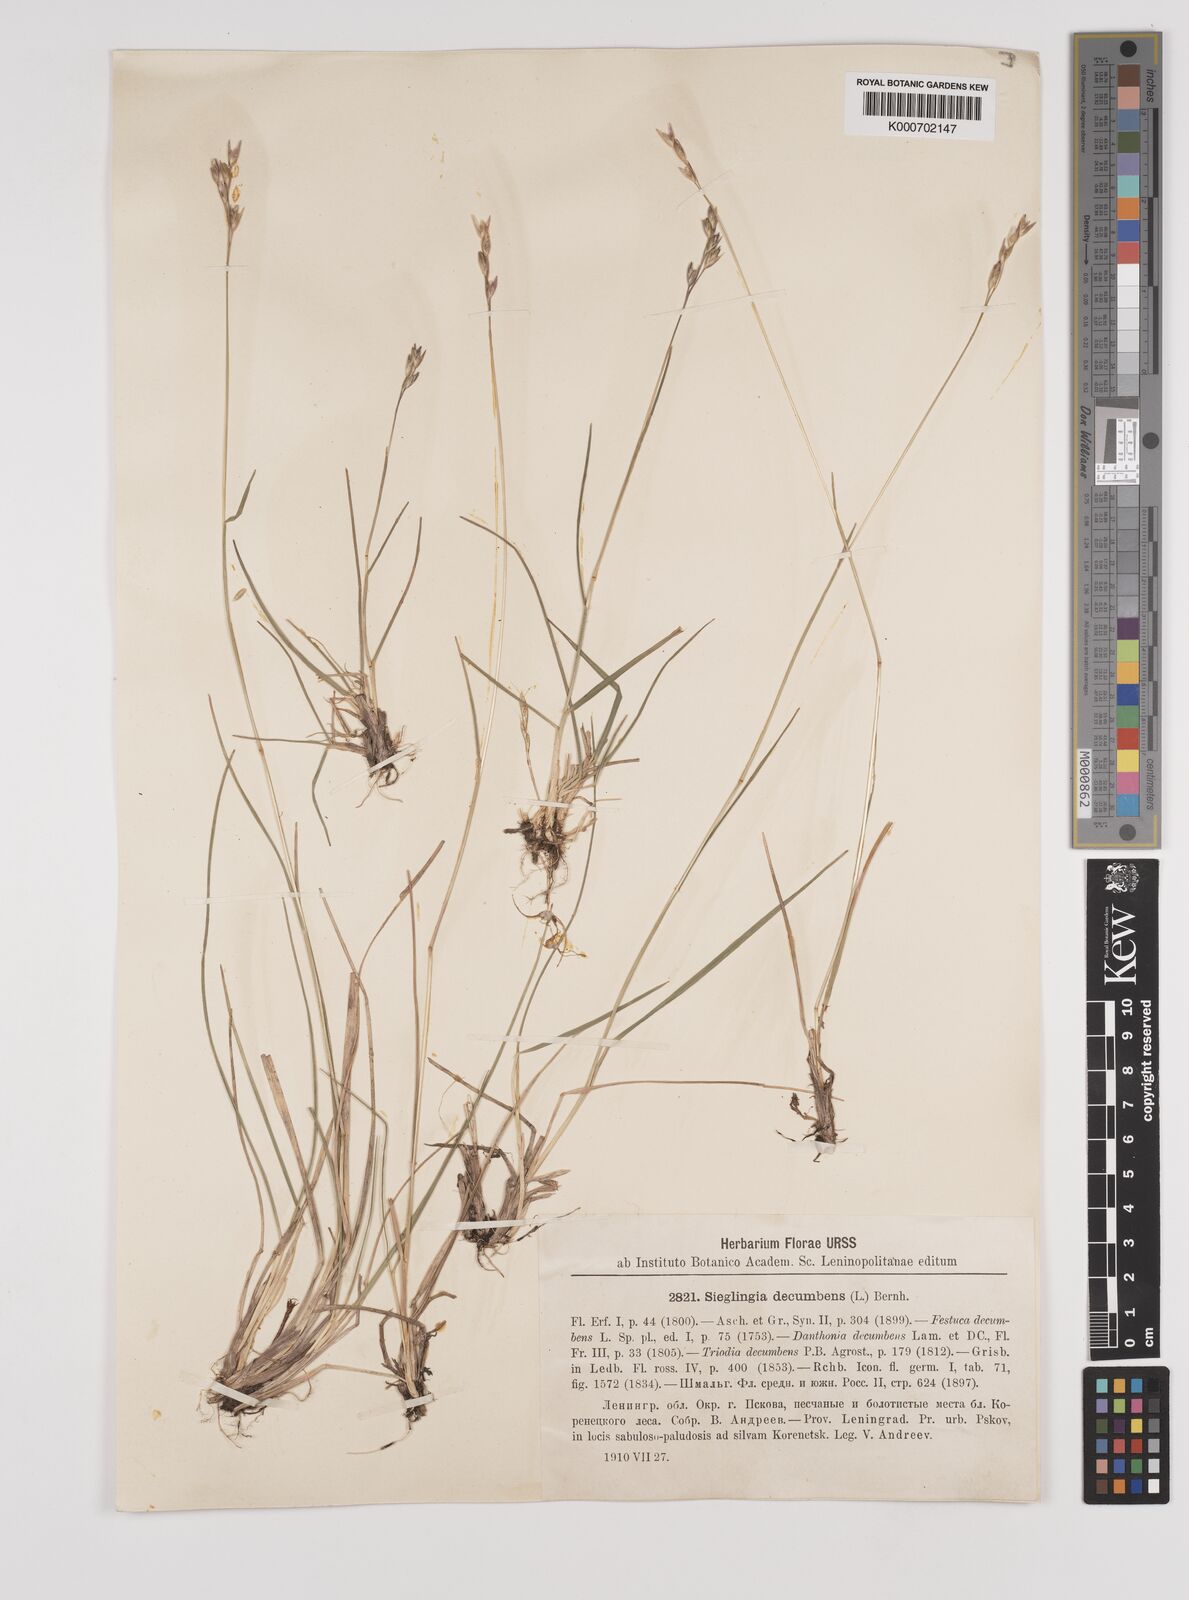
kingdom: Plantae
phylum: Tracheophyta
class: Liliopsida
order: Poales
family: Poaceae
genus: Danthonia
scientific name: Danthonia decumbens
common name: Common heathgrass
